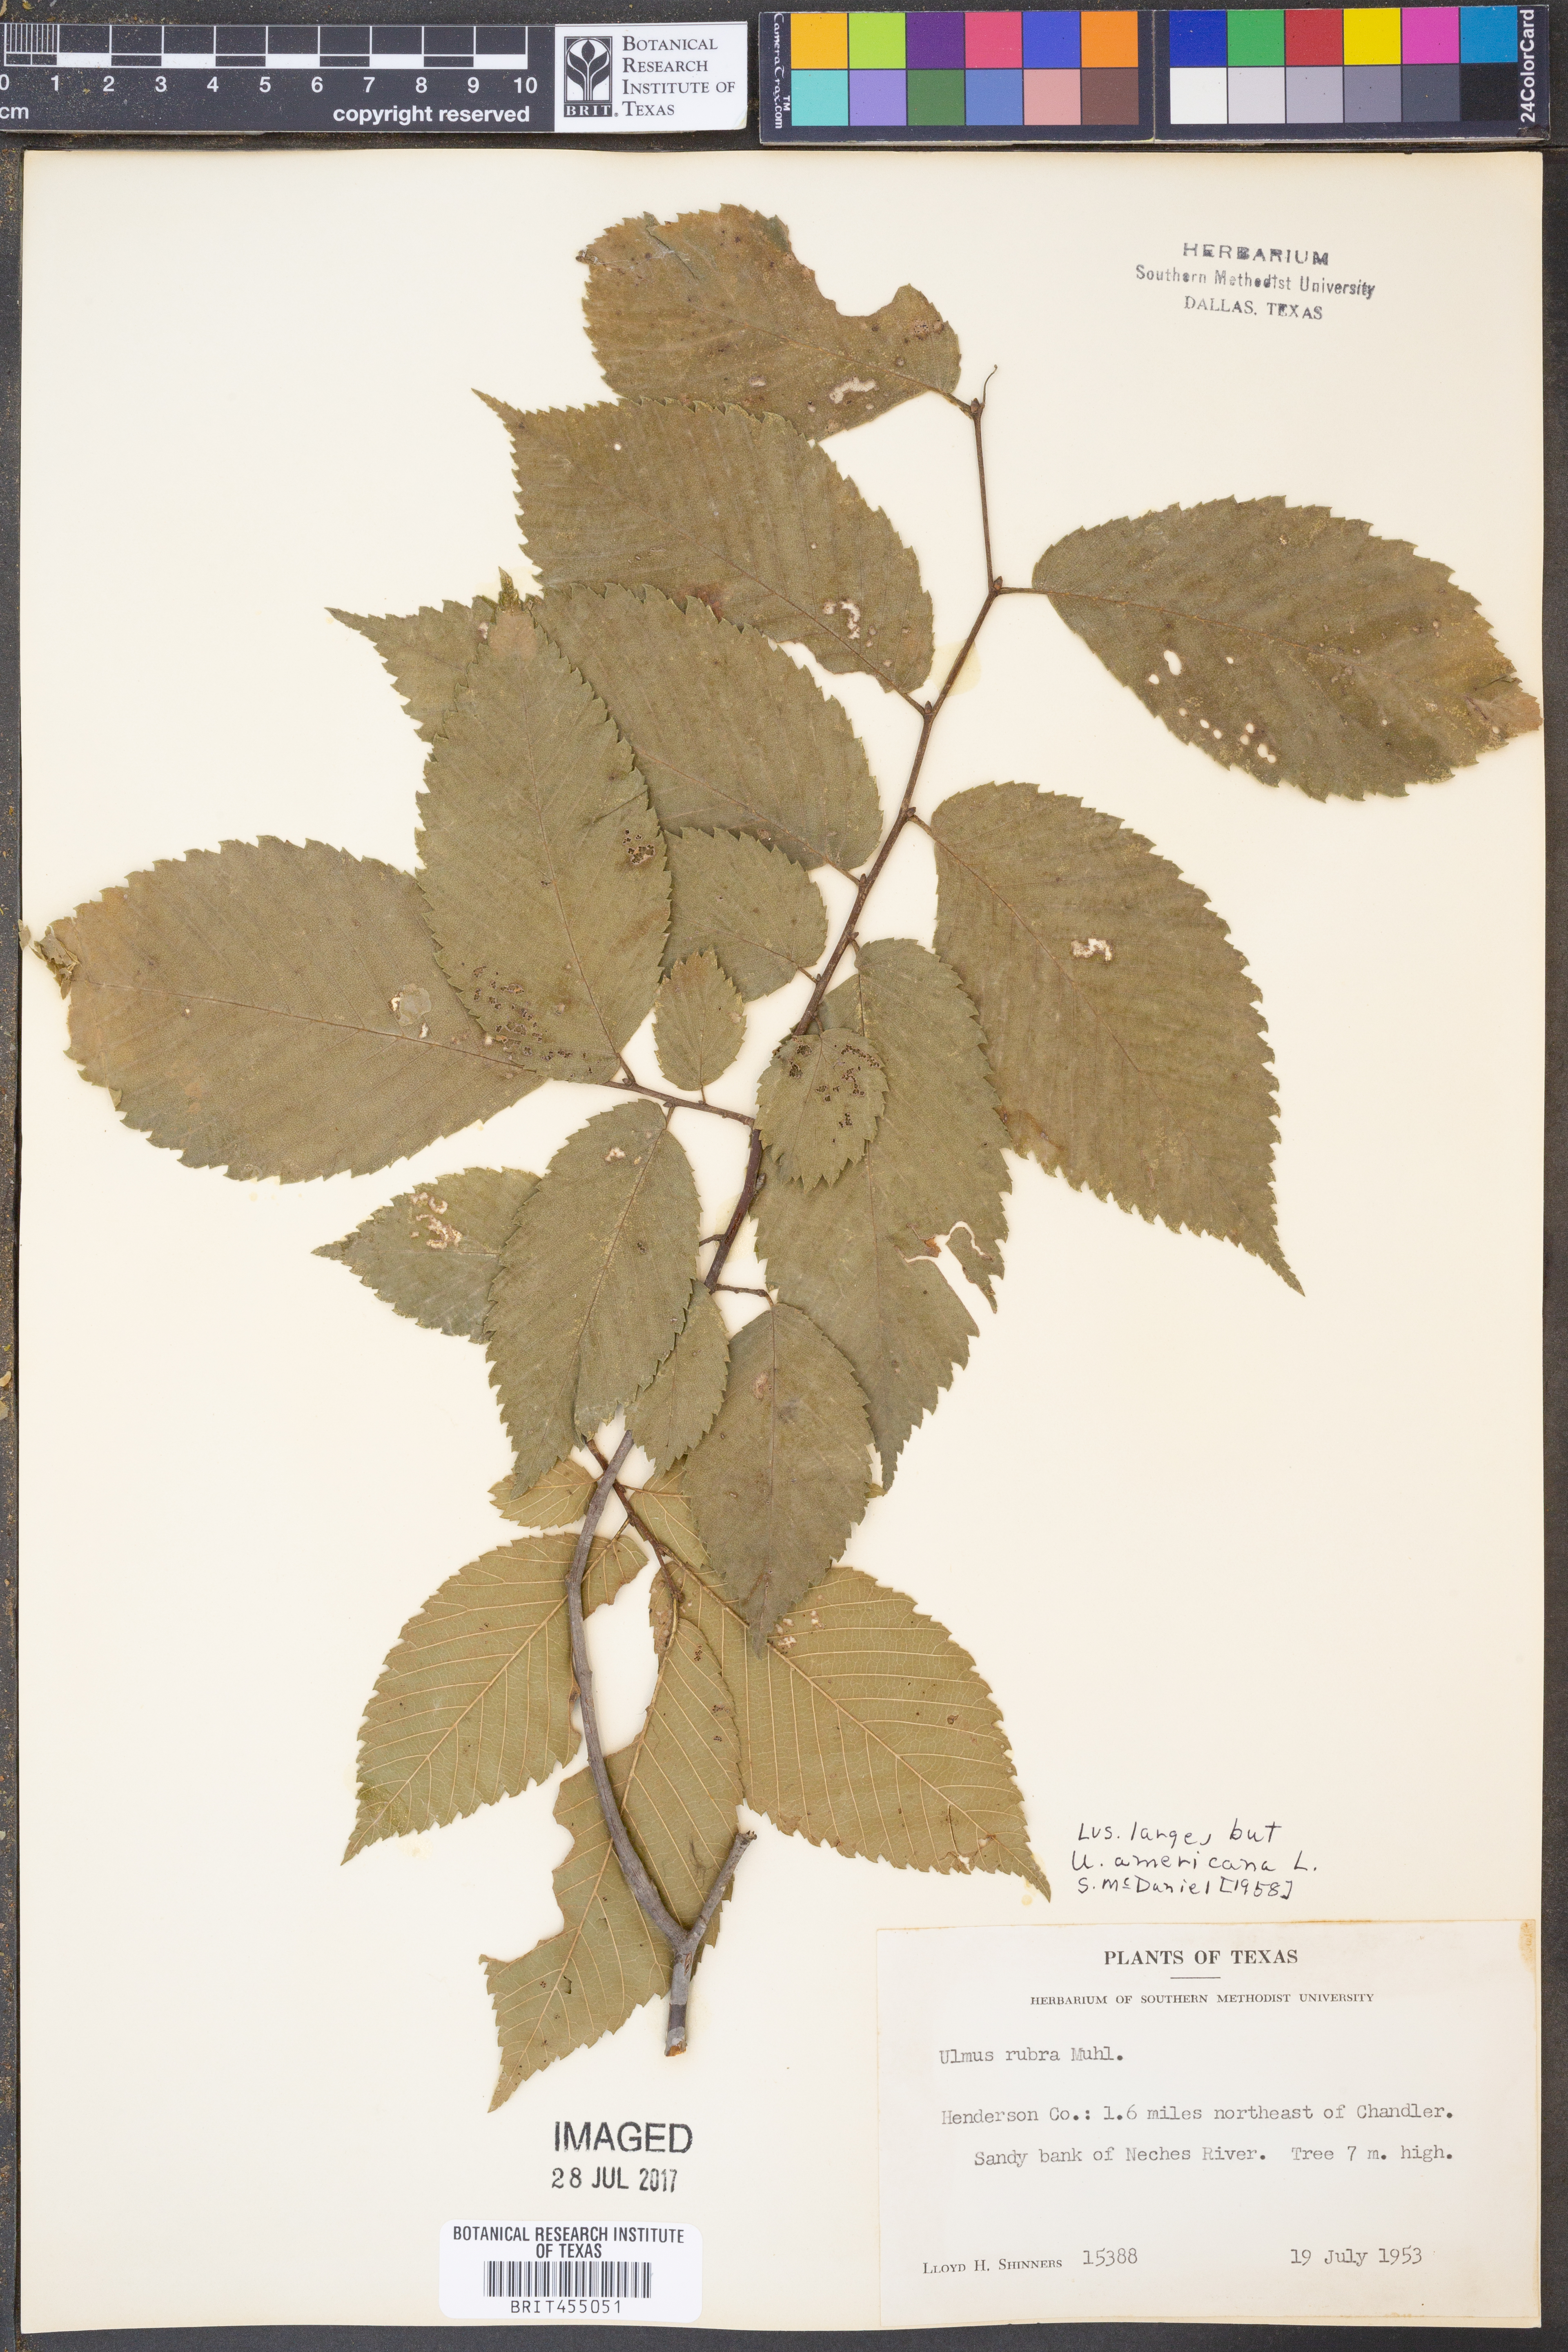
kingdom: Plantae
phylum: Tracheophyta
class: Magnoliopsida
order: Rosales
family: Ulmaceae
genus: Ulmus
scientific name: Ulmus americana
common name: American elm
